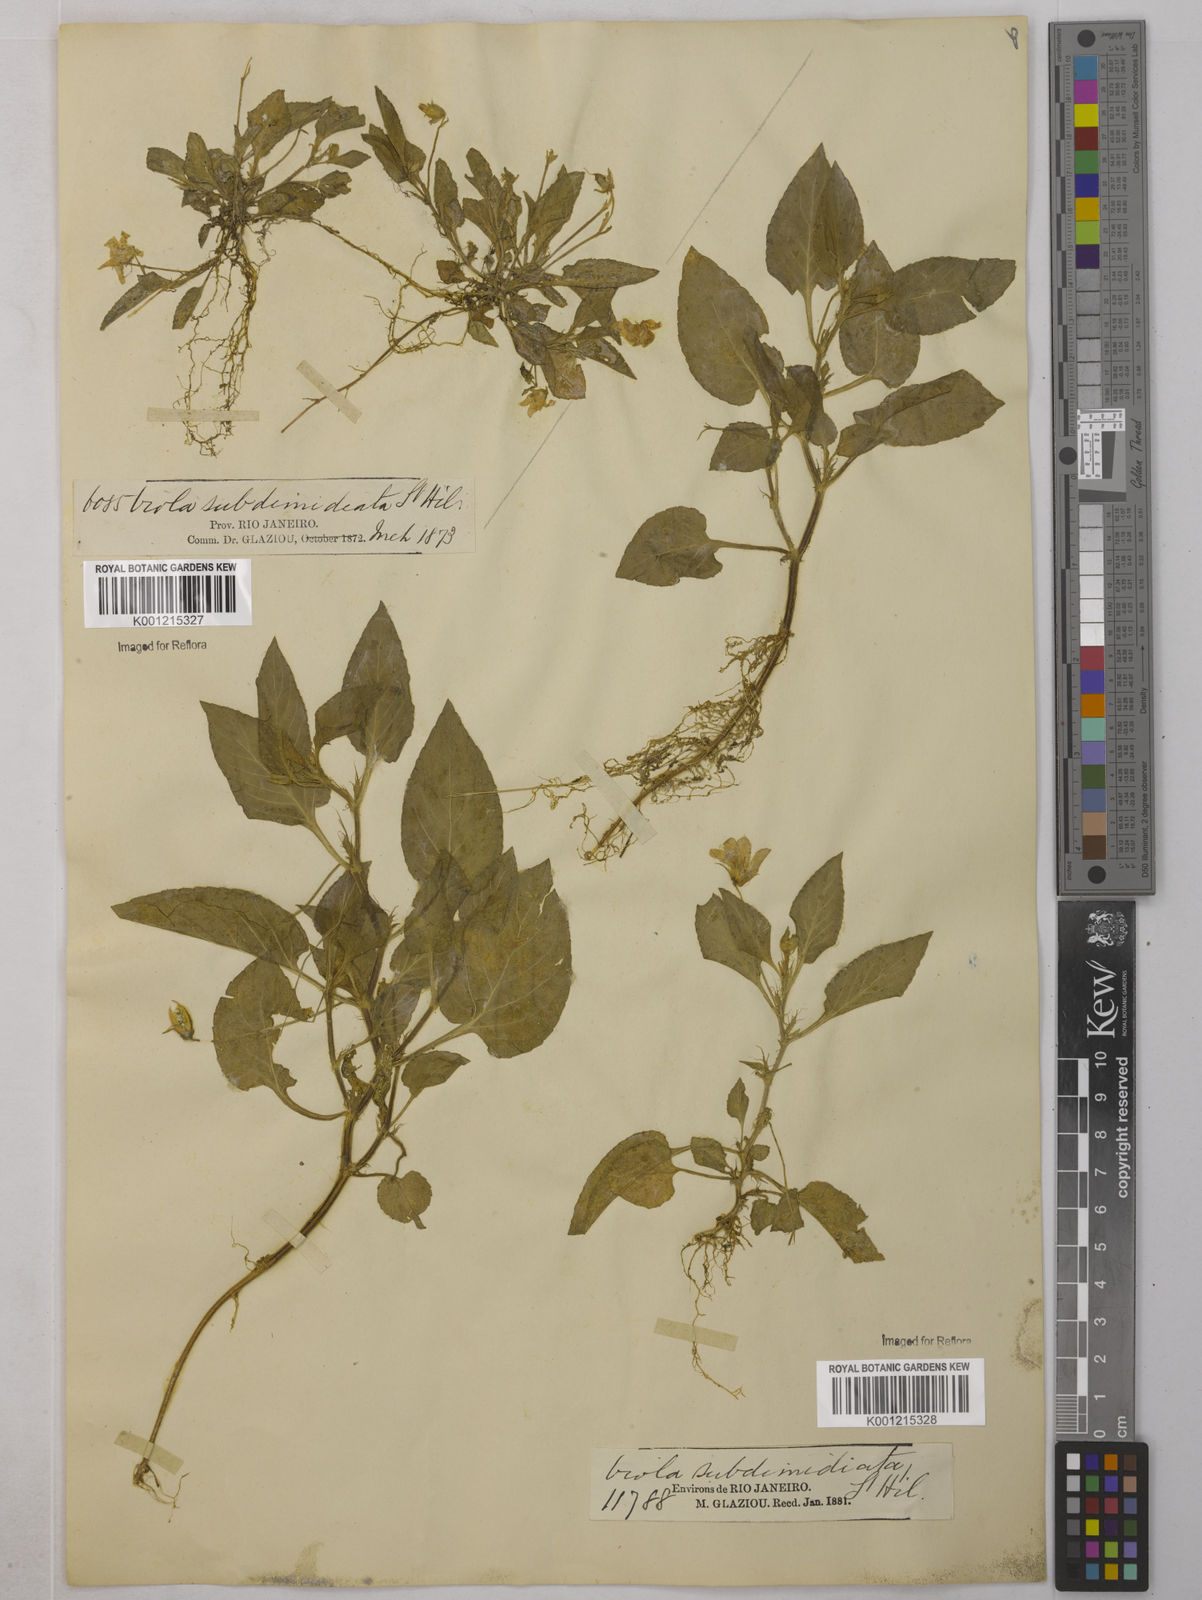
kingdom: Plantae
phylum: Tracheophyta
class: Magnoliopsida
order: Malpighiales
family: Violaceae
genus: Viola
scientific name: Viola subdimidiata
